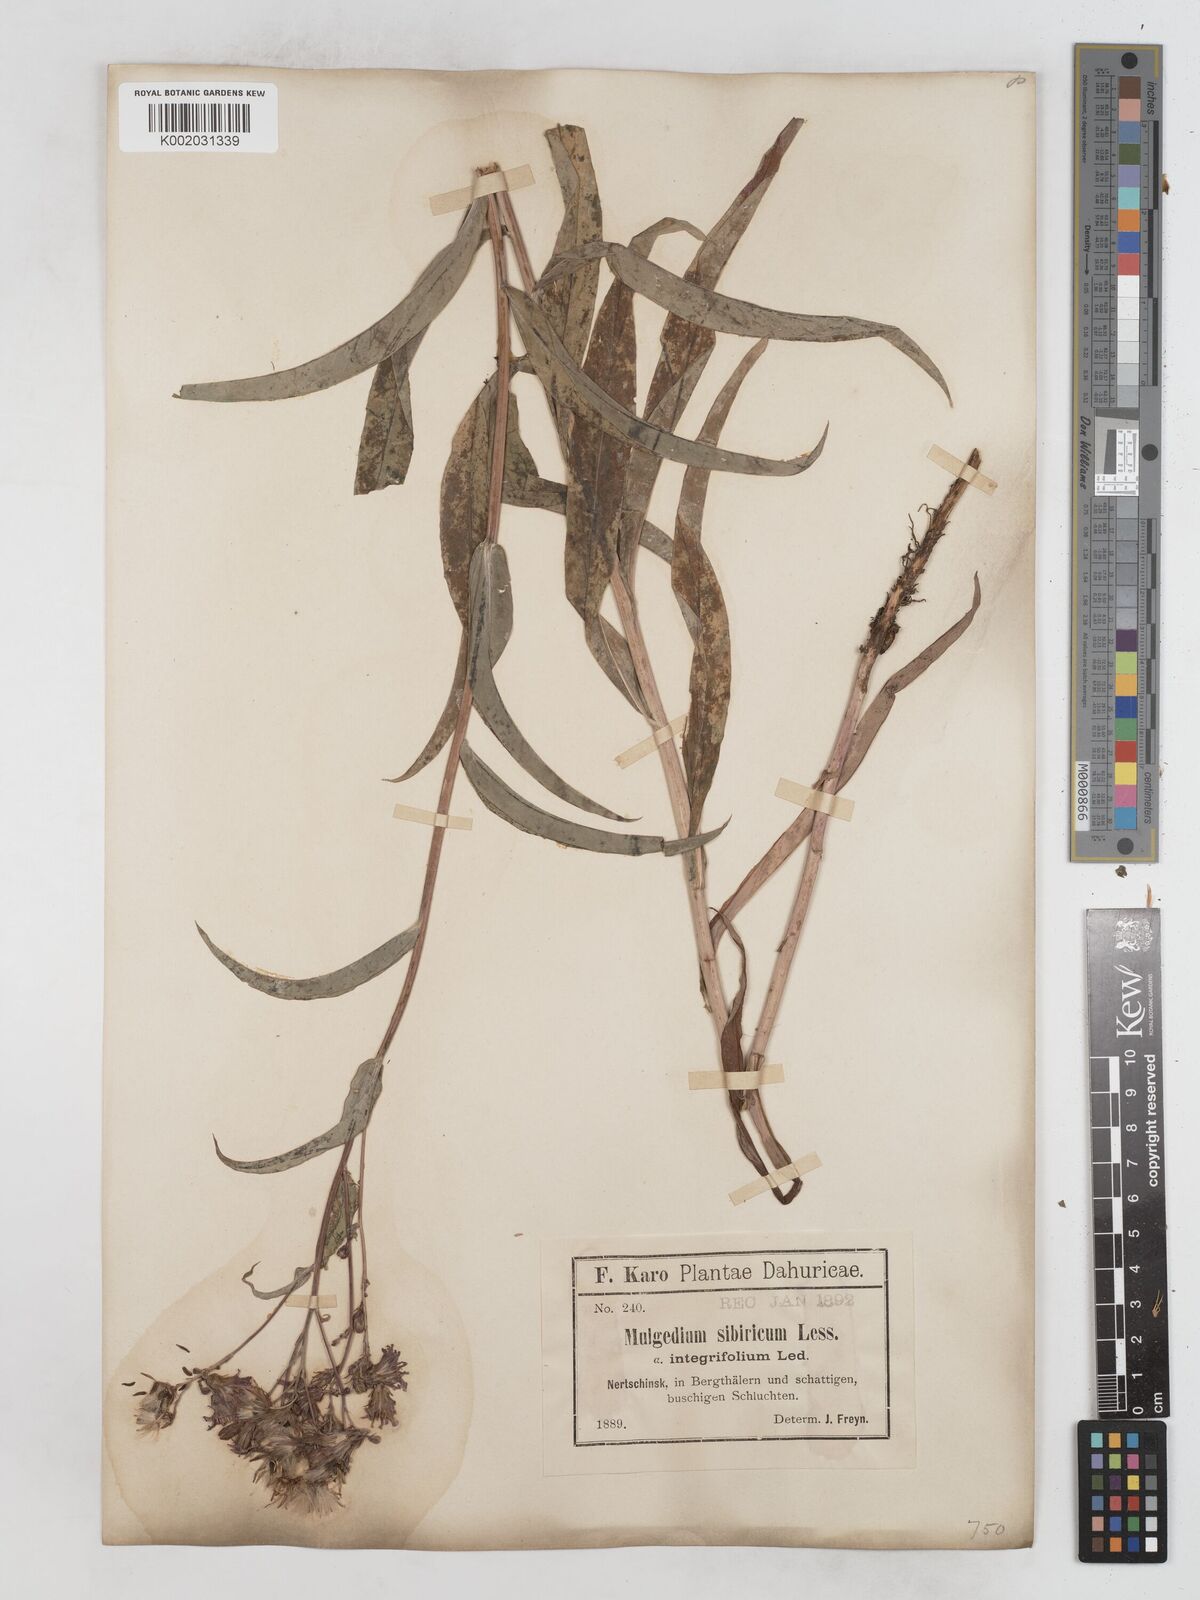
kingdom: Plantae
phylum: Tracheophyta
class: Magnoliopsida
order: Asterales
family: Asteraceae
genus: Lactuca
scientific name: Lactuca sibirica
